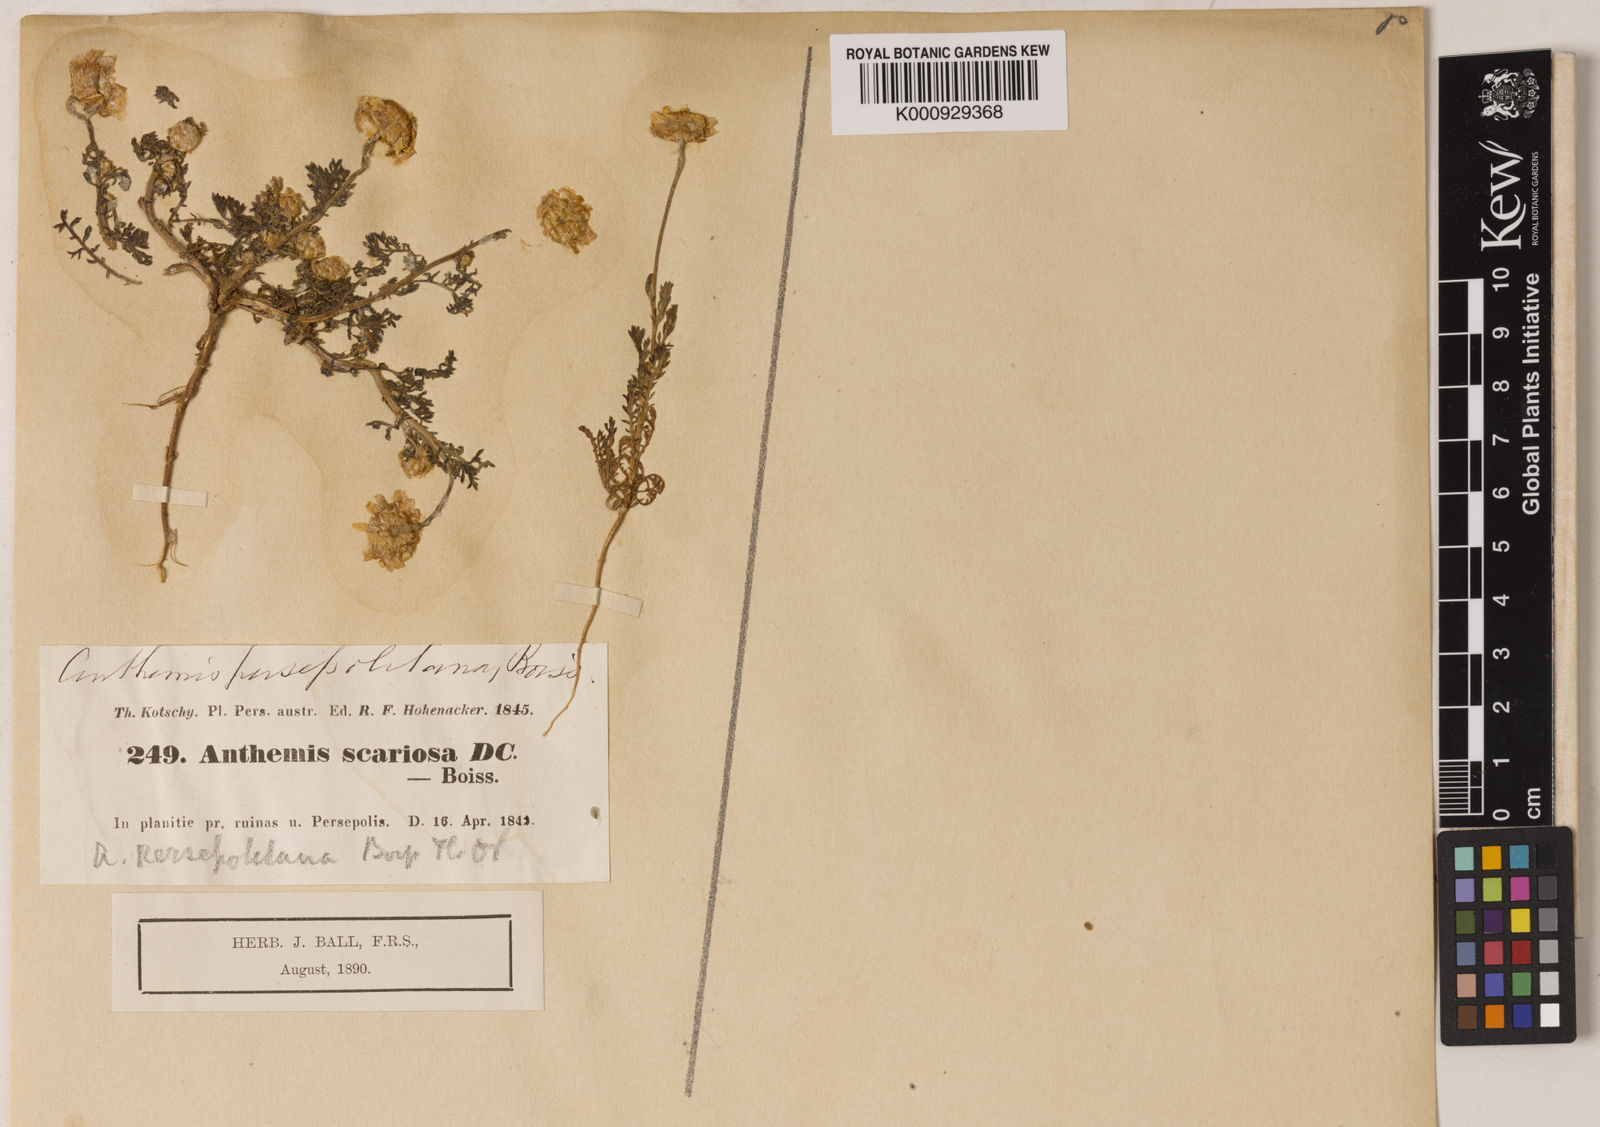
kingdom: Plantae
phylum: Tracheophyta
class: Magnoliopsida
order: Asterales
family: Asteraceae
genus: Anthemis
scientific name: Anthemis scariosa
